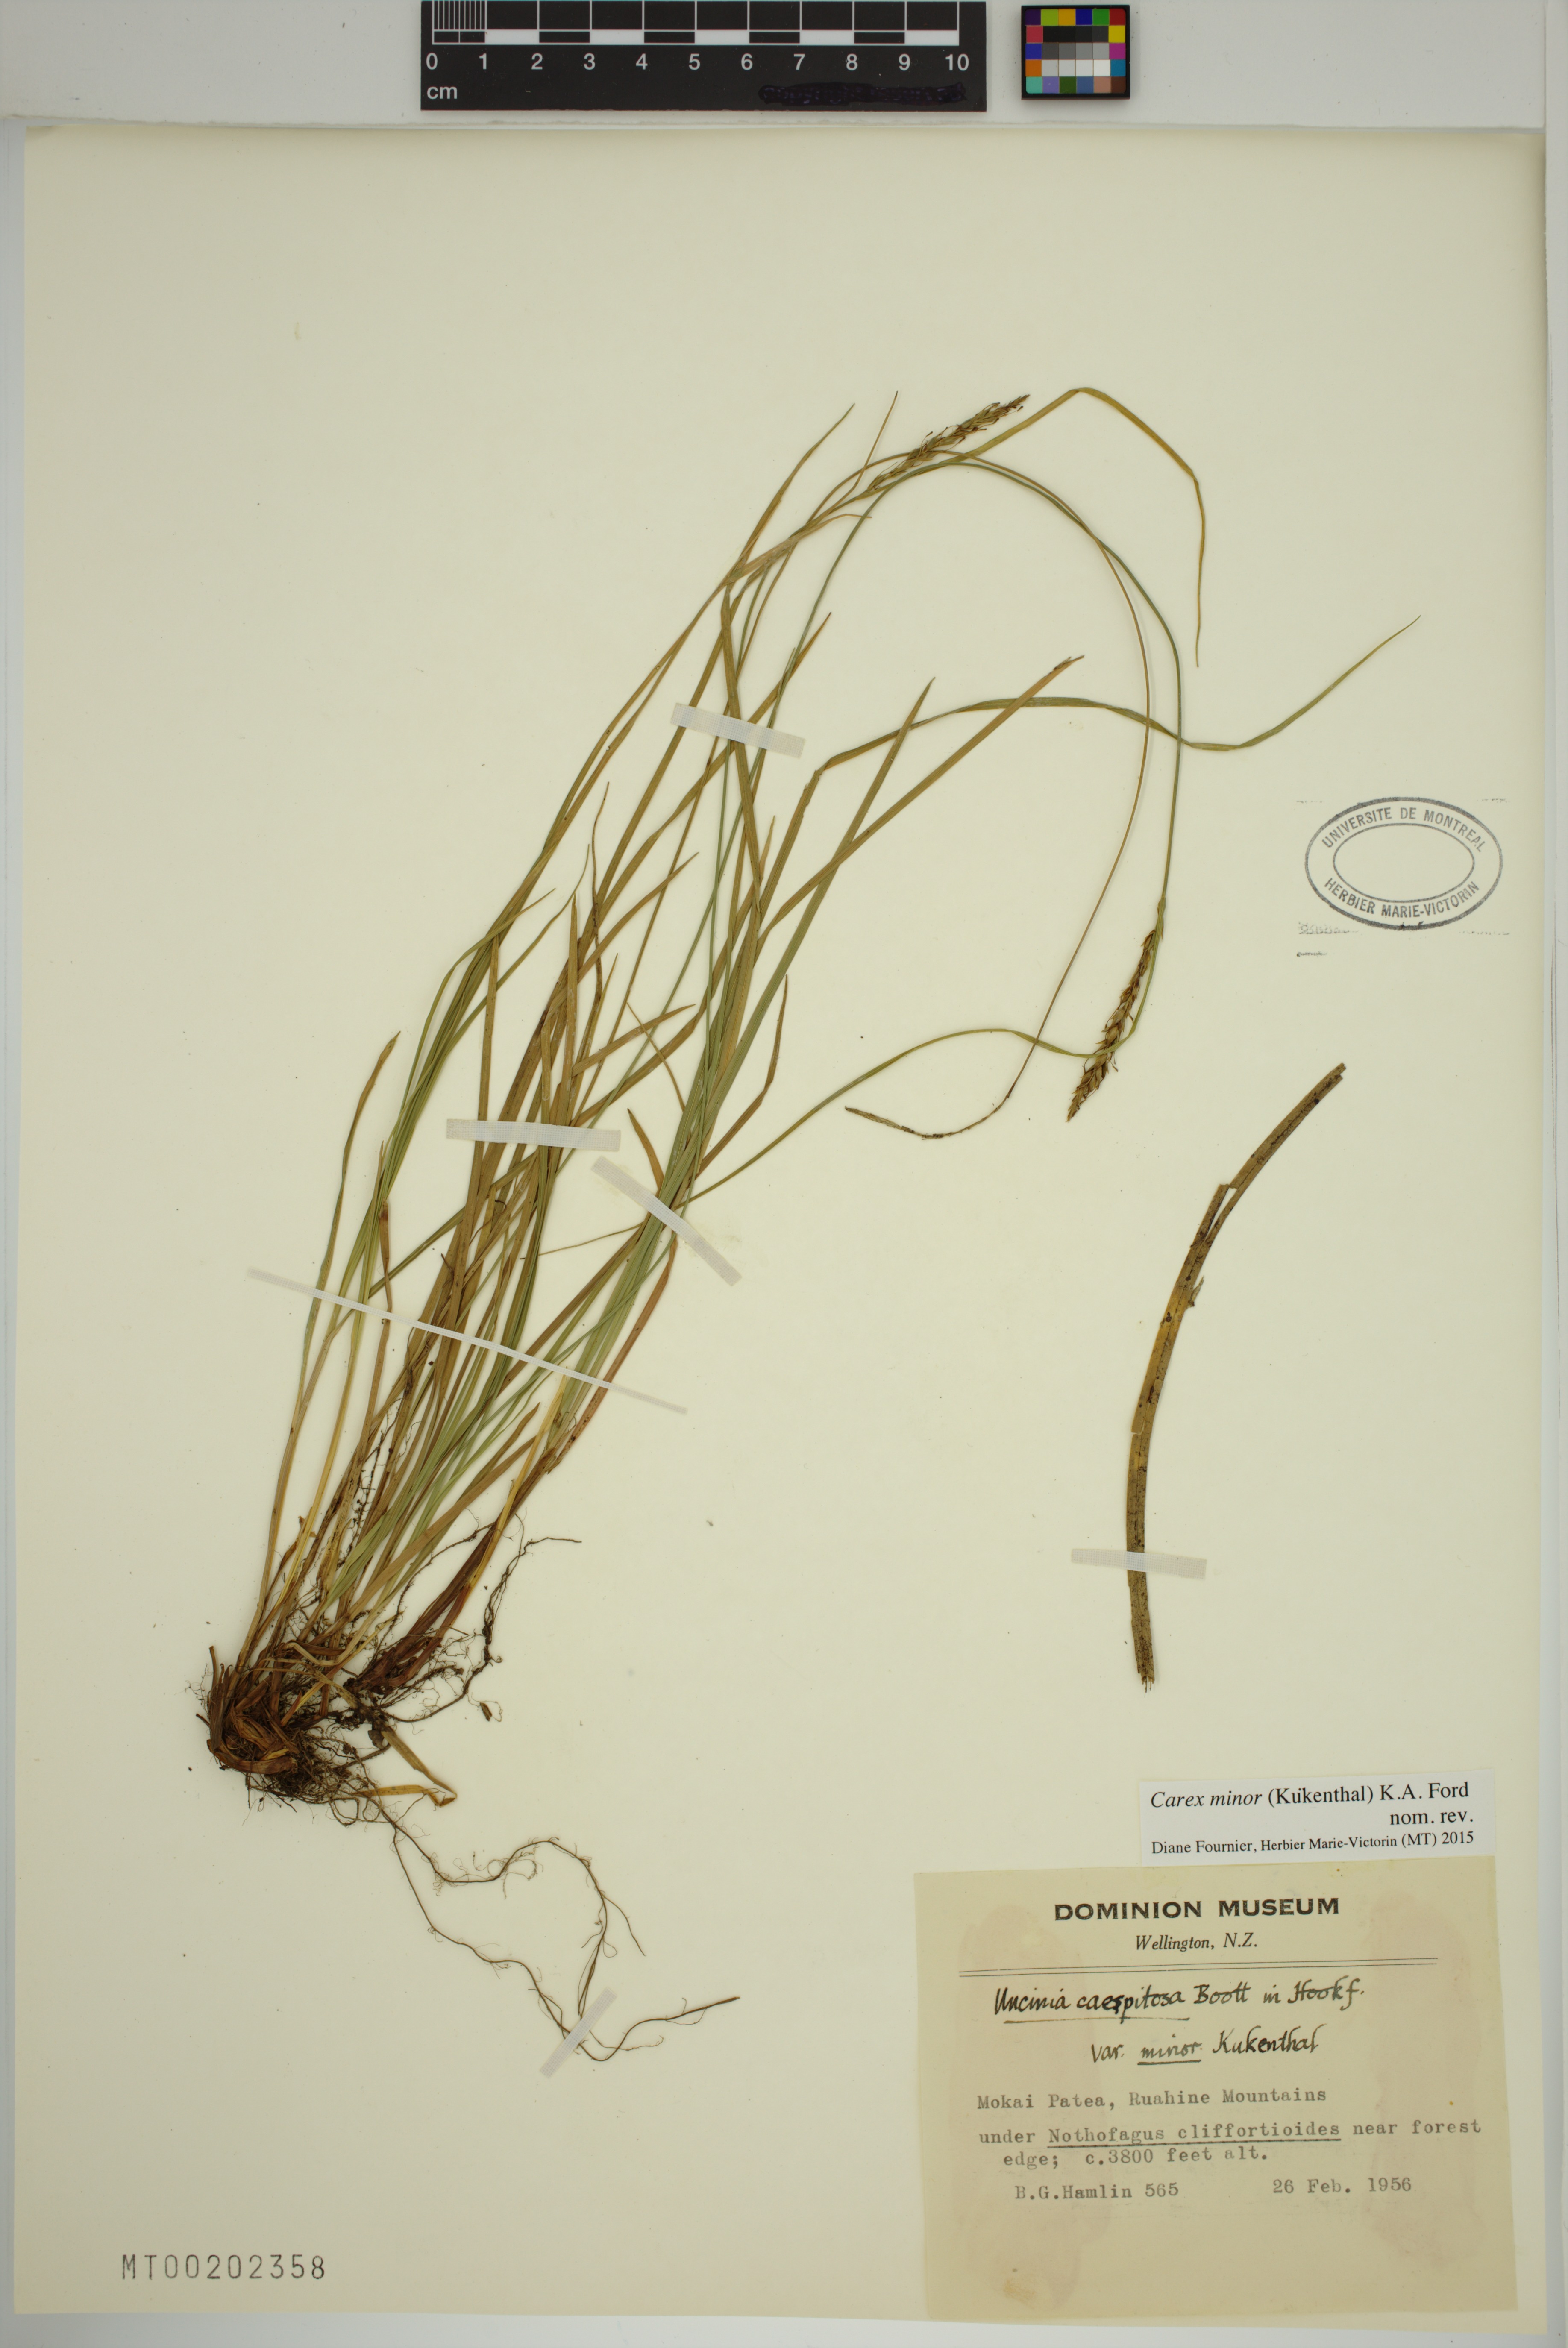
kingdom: Plantae
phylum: Tracheophyta
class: Liliopsida
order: Poales
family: Cyperaceae
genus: Carex
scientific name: Carex minor
